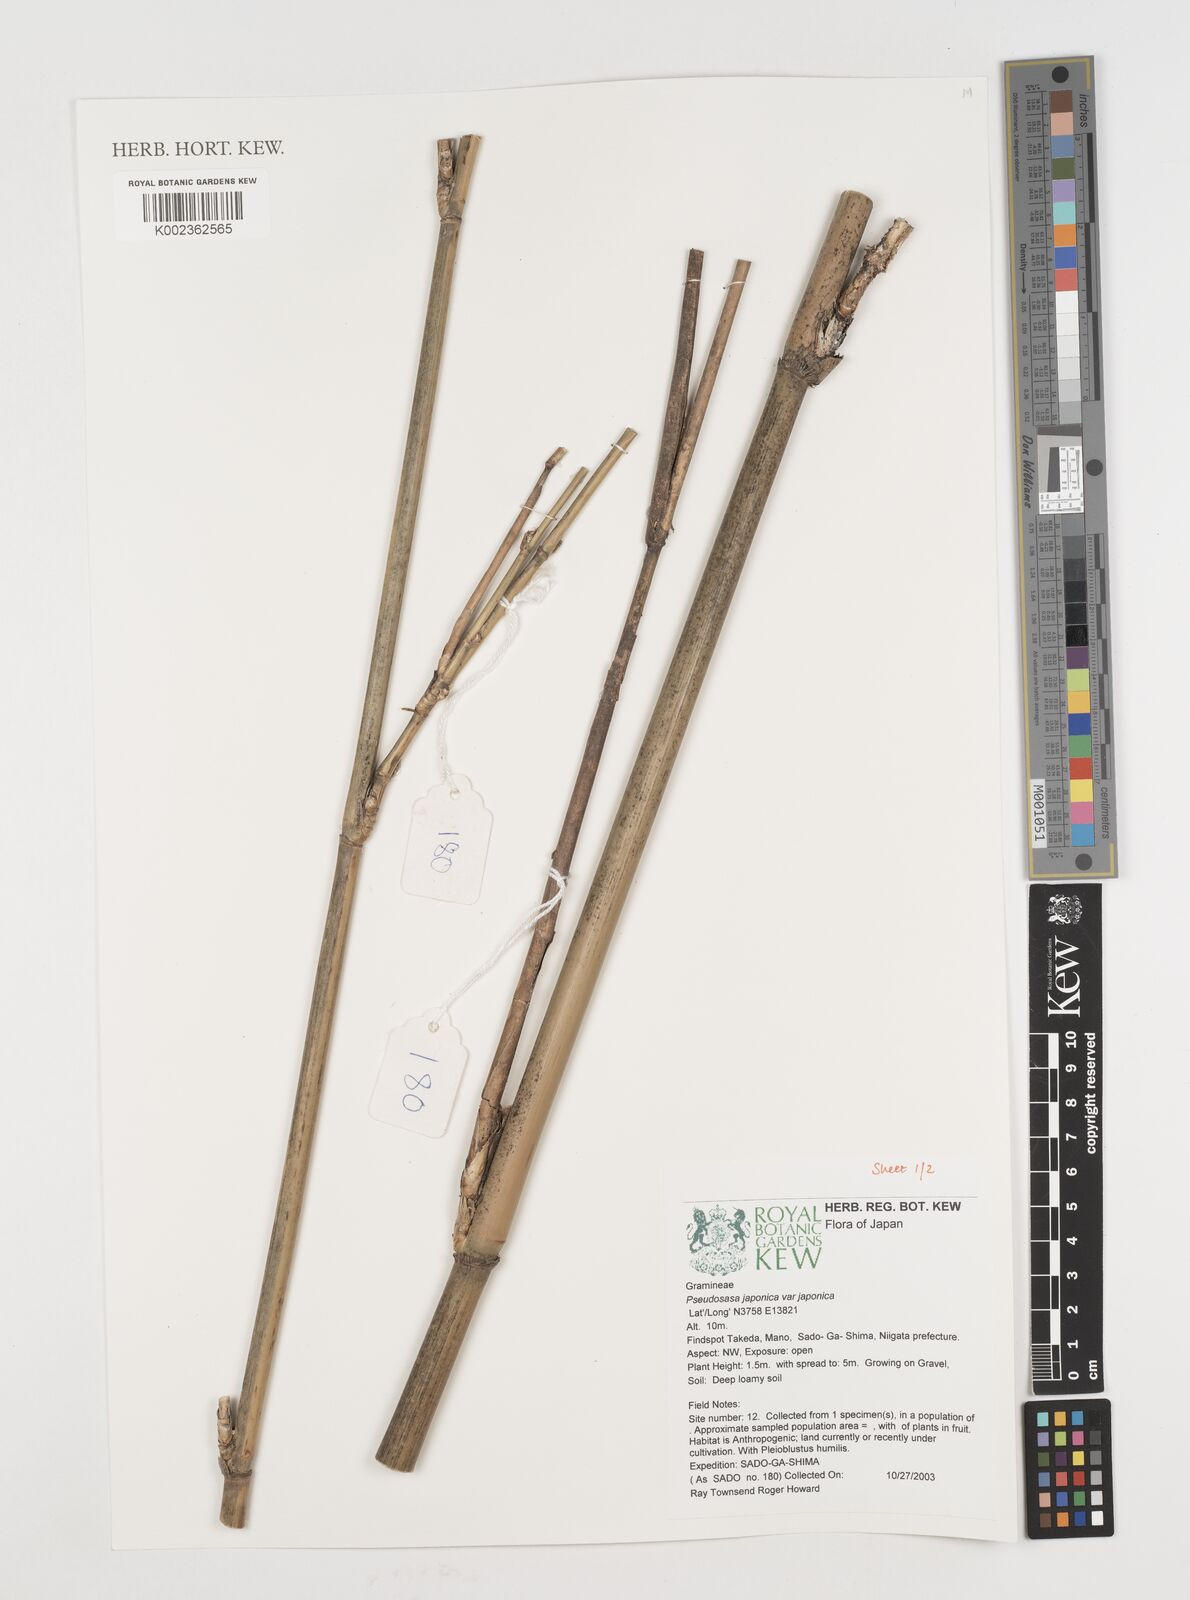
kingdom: Plantae
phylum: Tracheophyta
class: Liliopsida
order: Poales
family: Poaceae
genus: Pseudosasa
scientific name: Pseudosasa japonica
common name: Arrow bamboo
